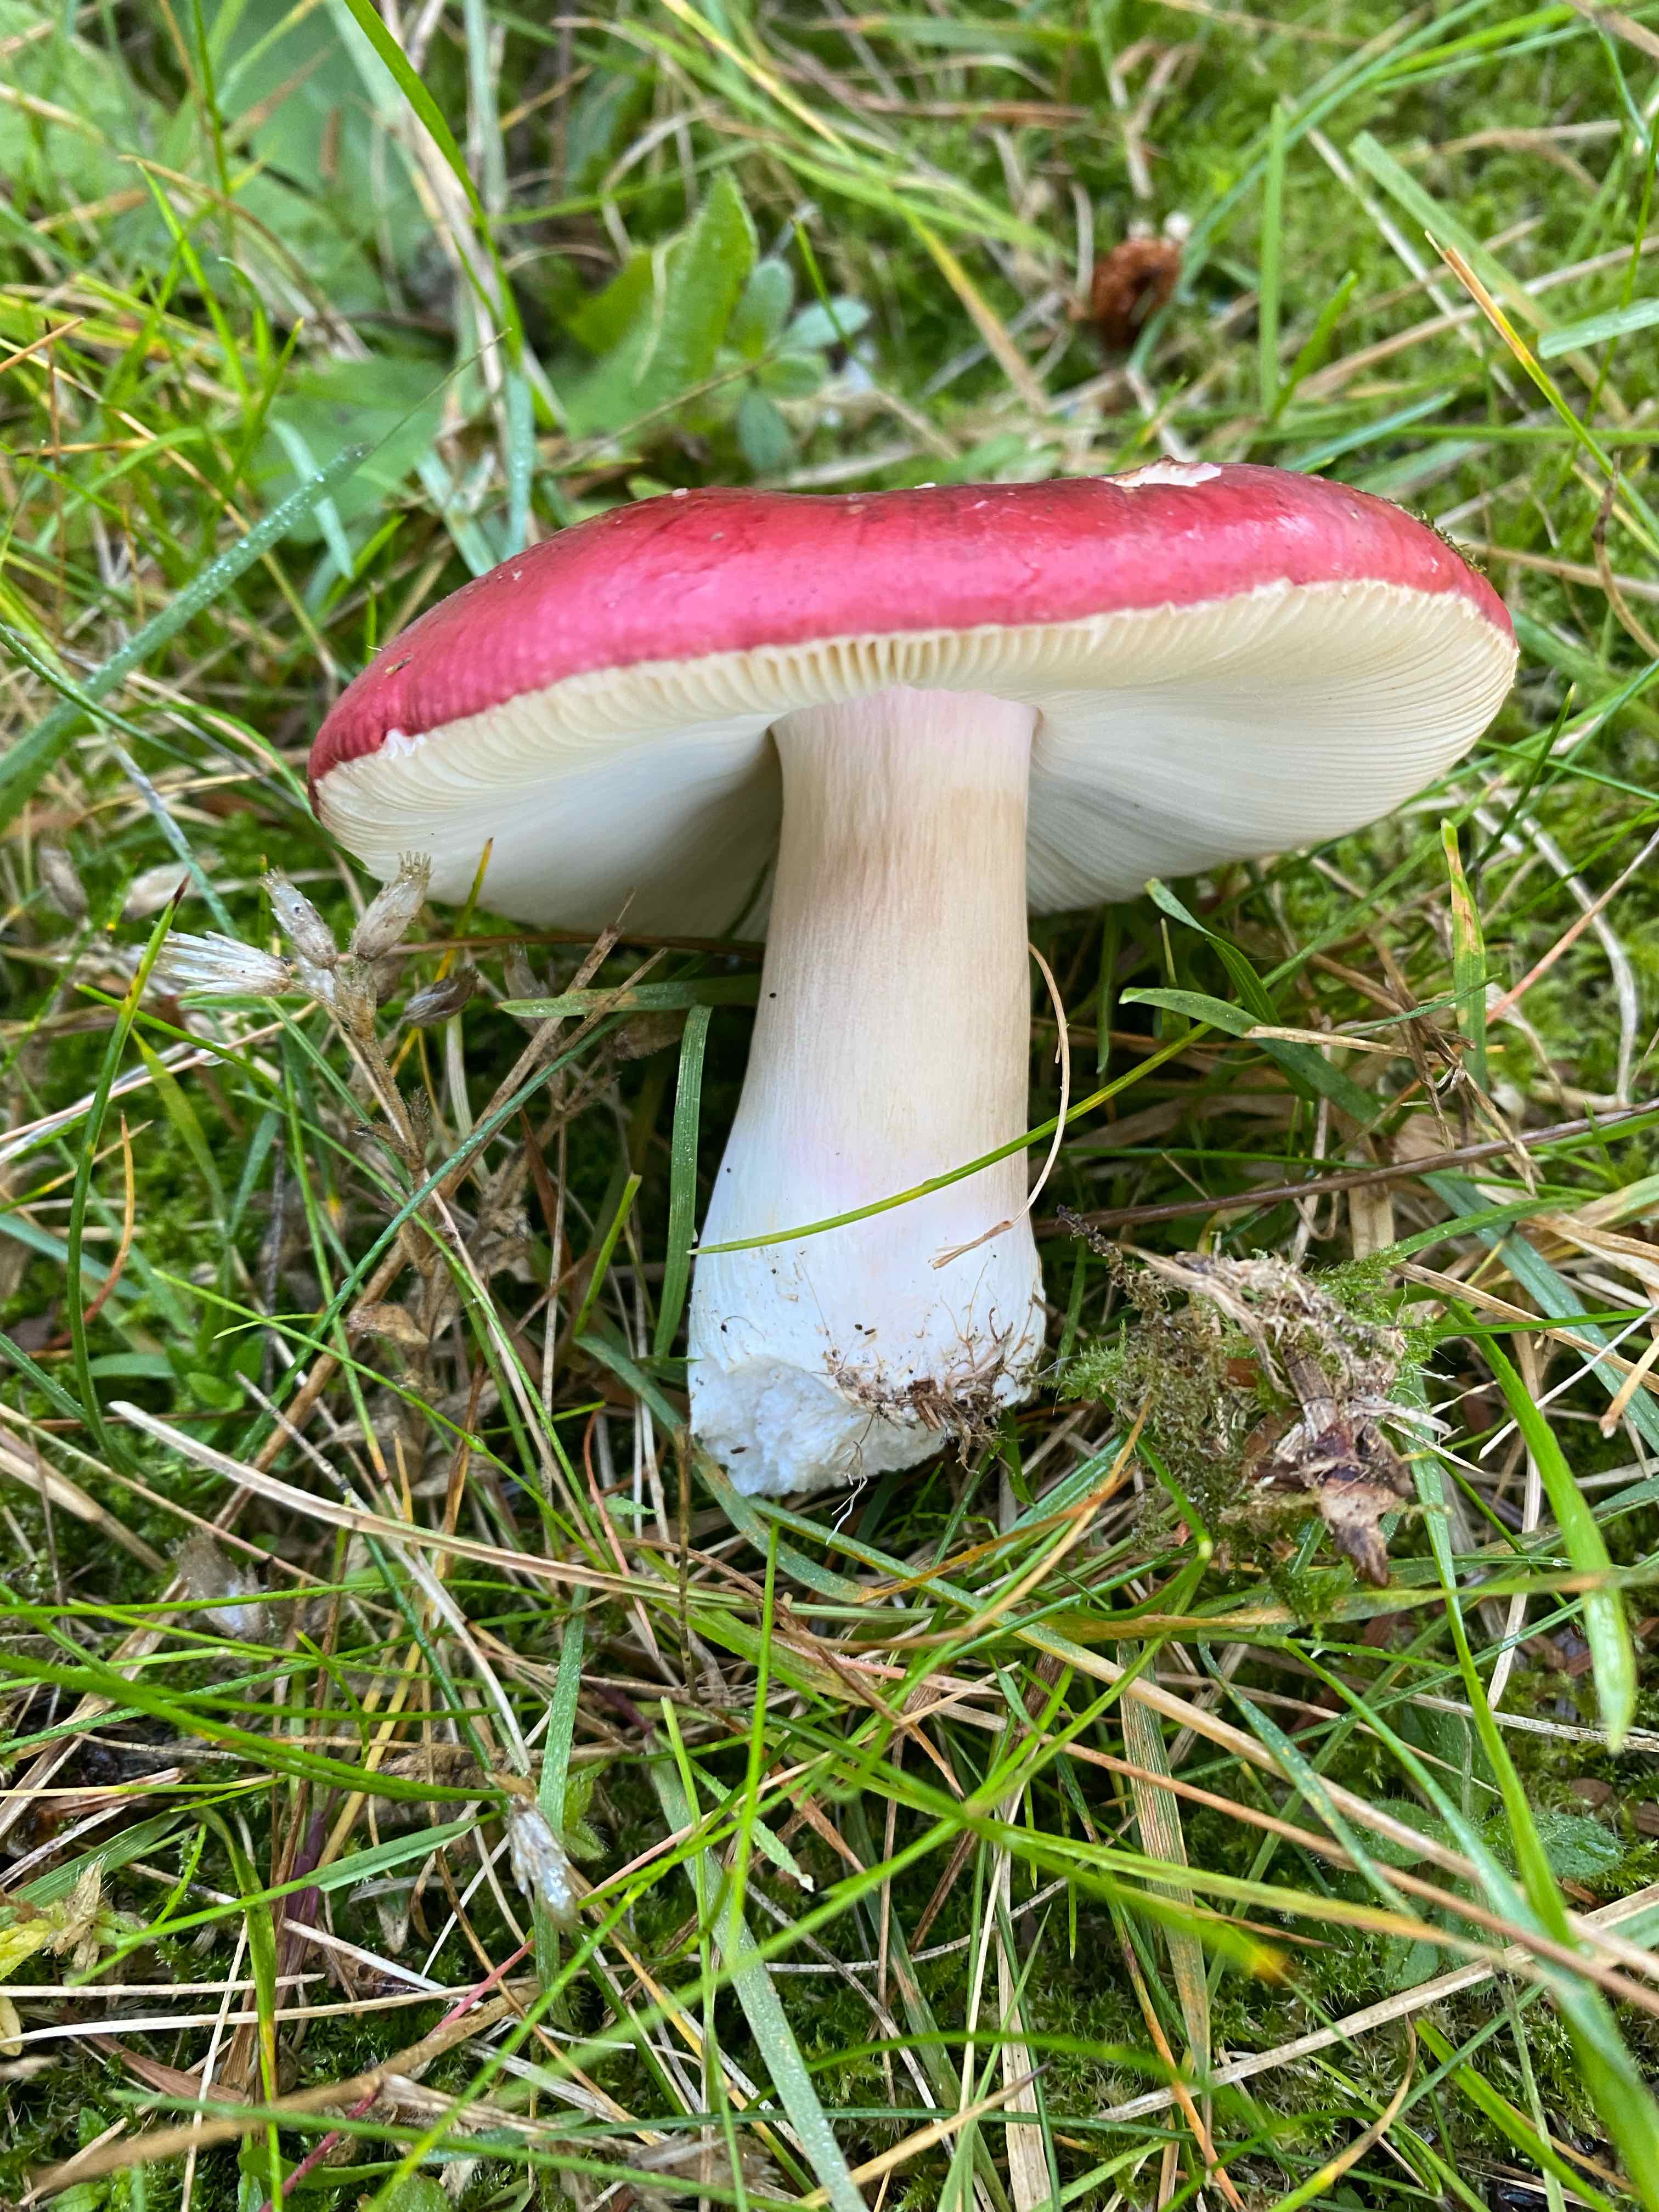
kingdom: Fungi
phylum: Basidiomycota
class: Agaricomycetes
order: Russulales
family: Russulaceae
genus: Russula
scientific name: Russula xerampelina
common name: hummer-skørhat
